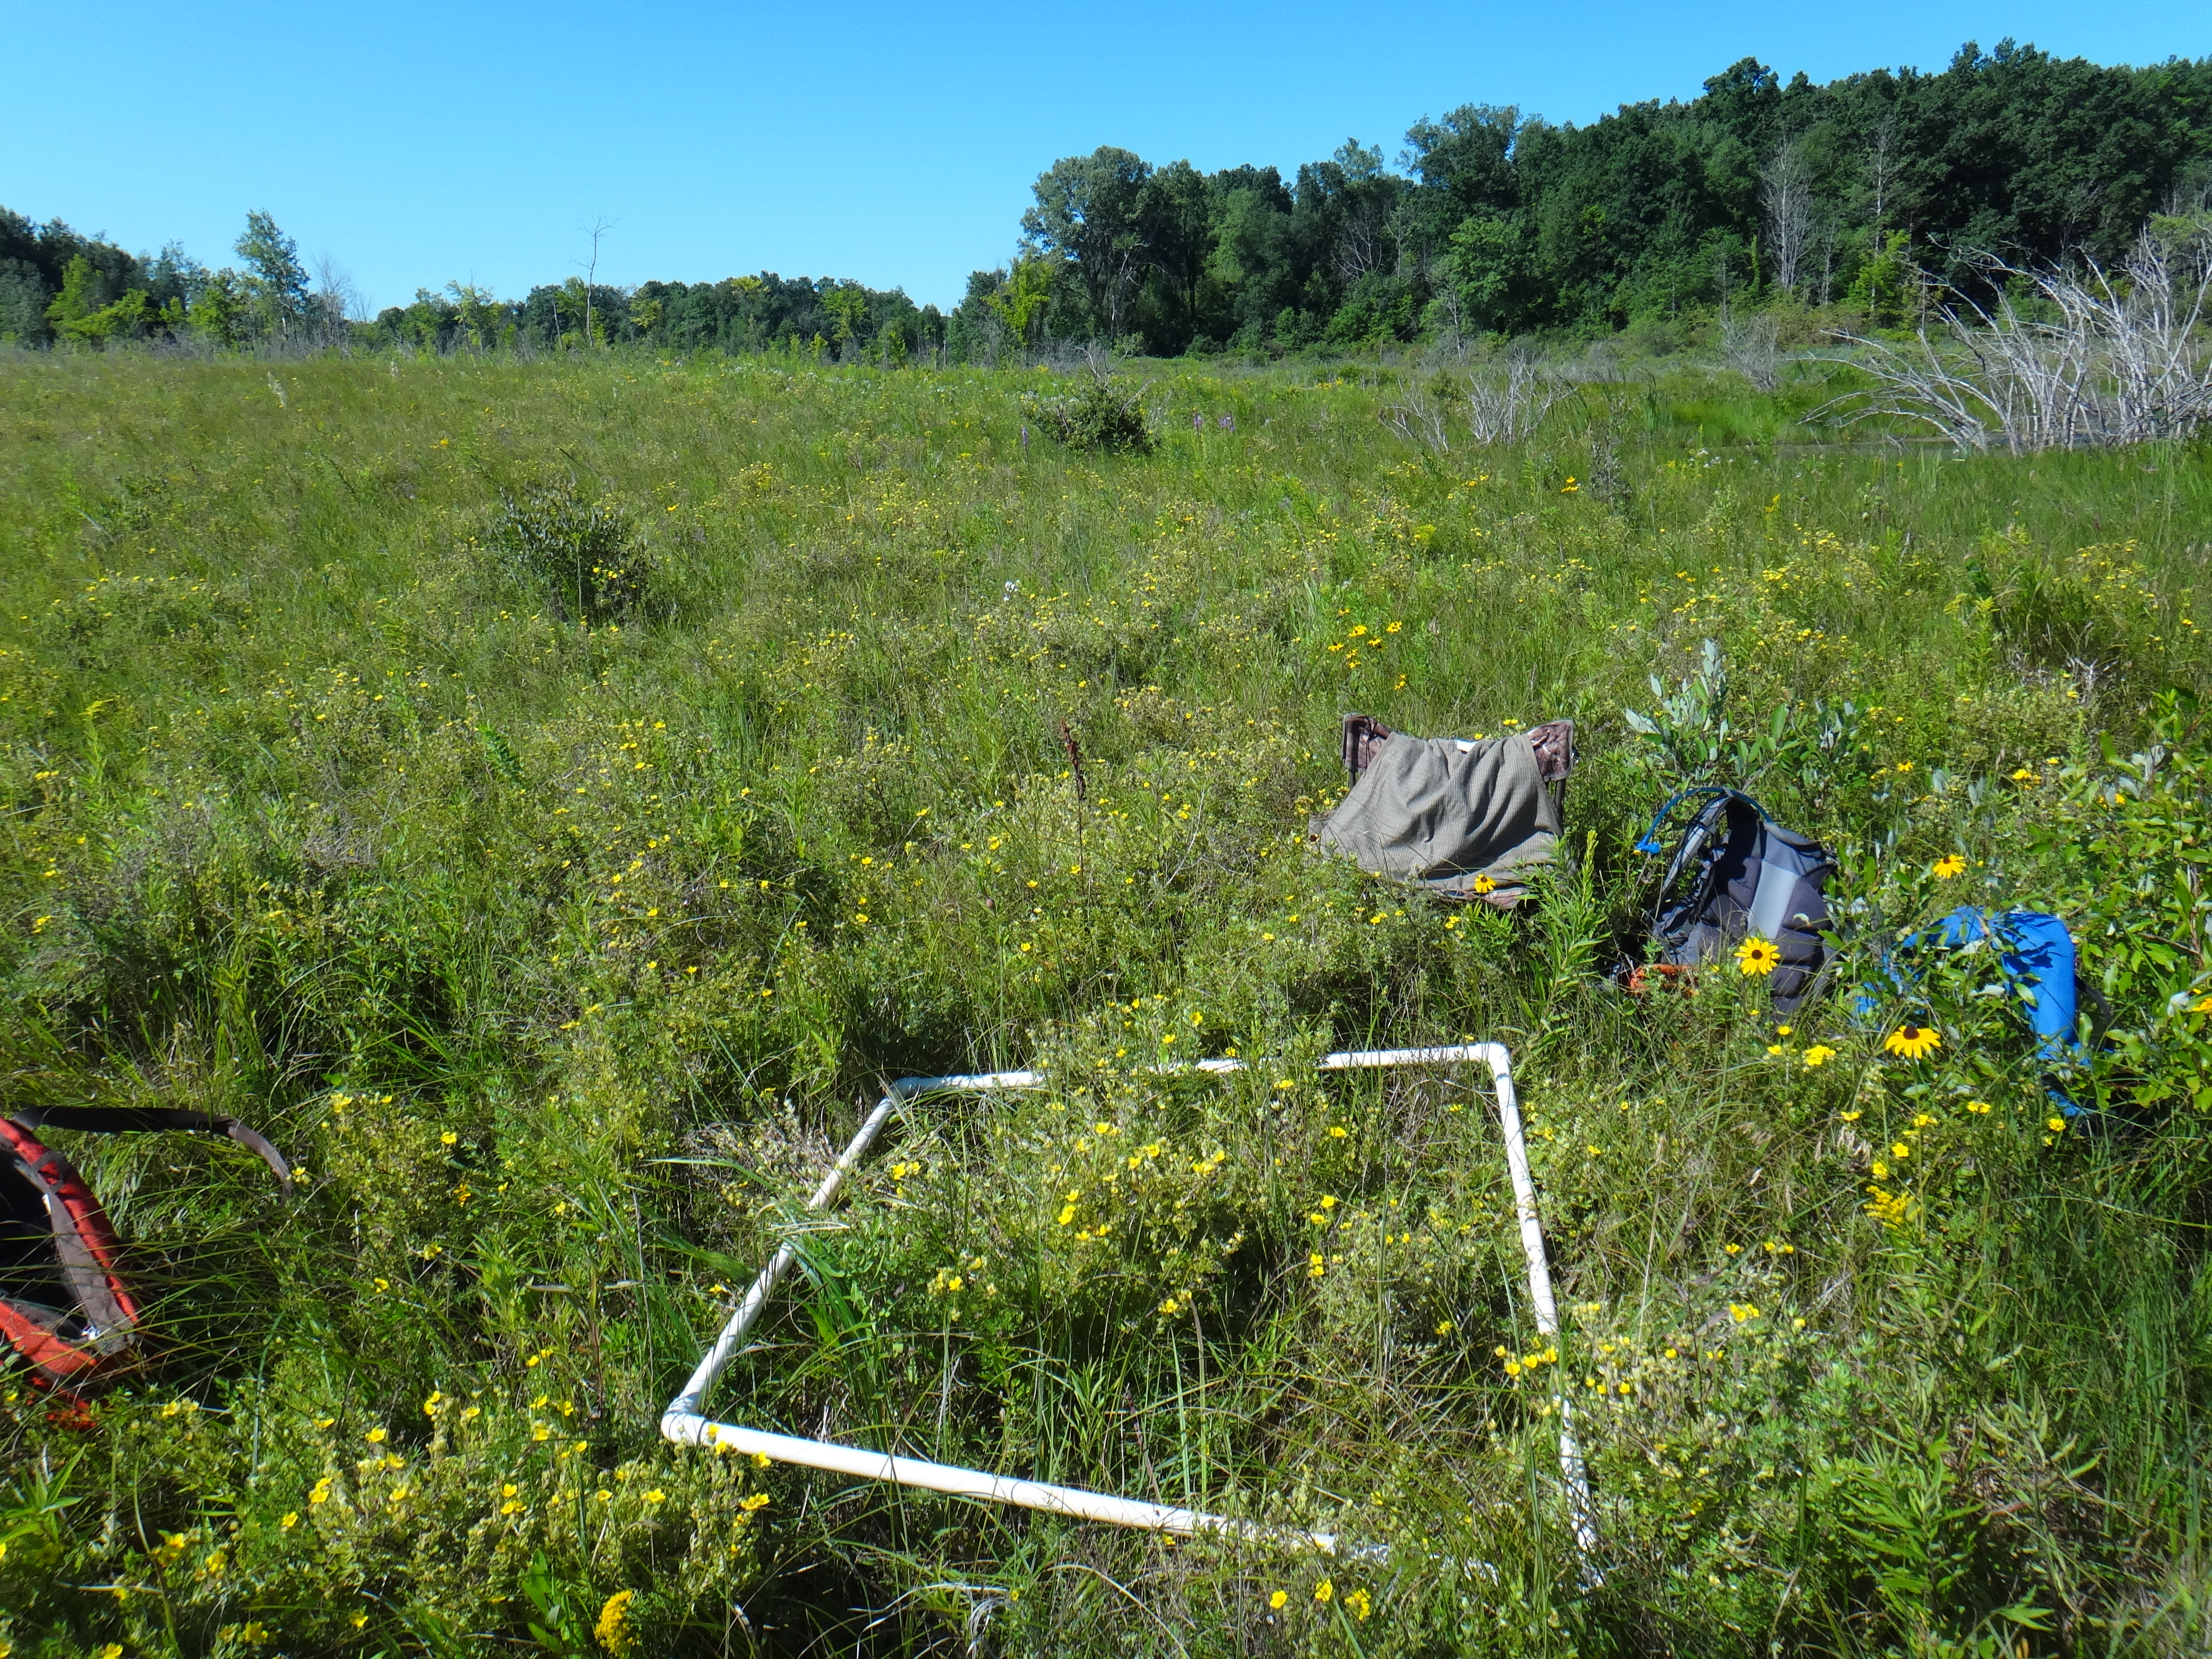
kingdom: Plantae
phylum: Tracheophyta
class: Magnoliopsida
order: Asterales
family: Asteraceae
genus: Solidago
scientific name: Solidago ohioensis
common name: Ohio goldenrod
